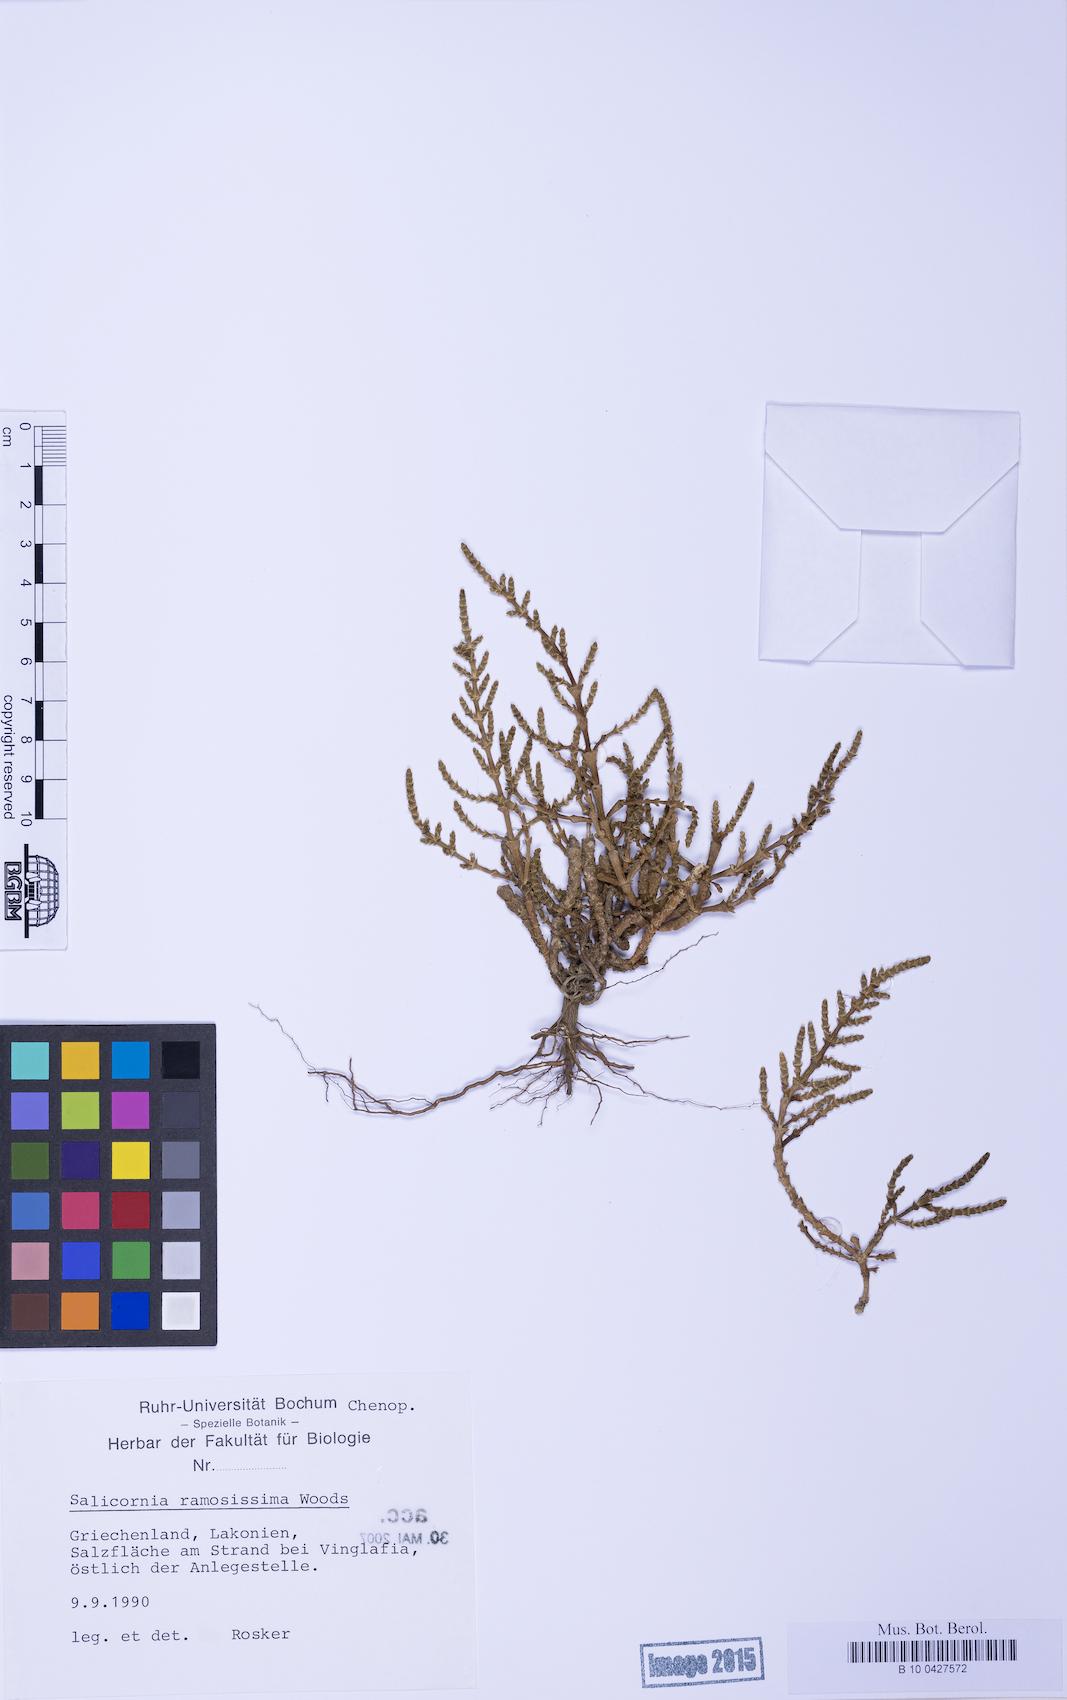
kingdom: Plantae
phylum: Tracheophyta
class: Magnoliopsida
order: Caryophyllales
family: Amaranthaceae
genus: Salicornia
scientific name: Salicornia perennans
